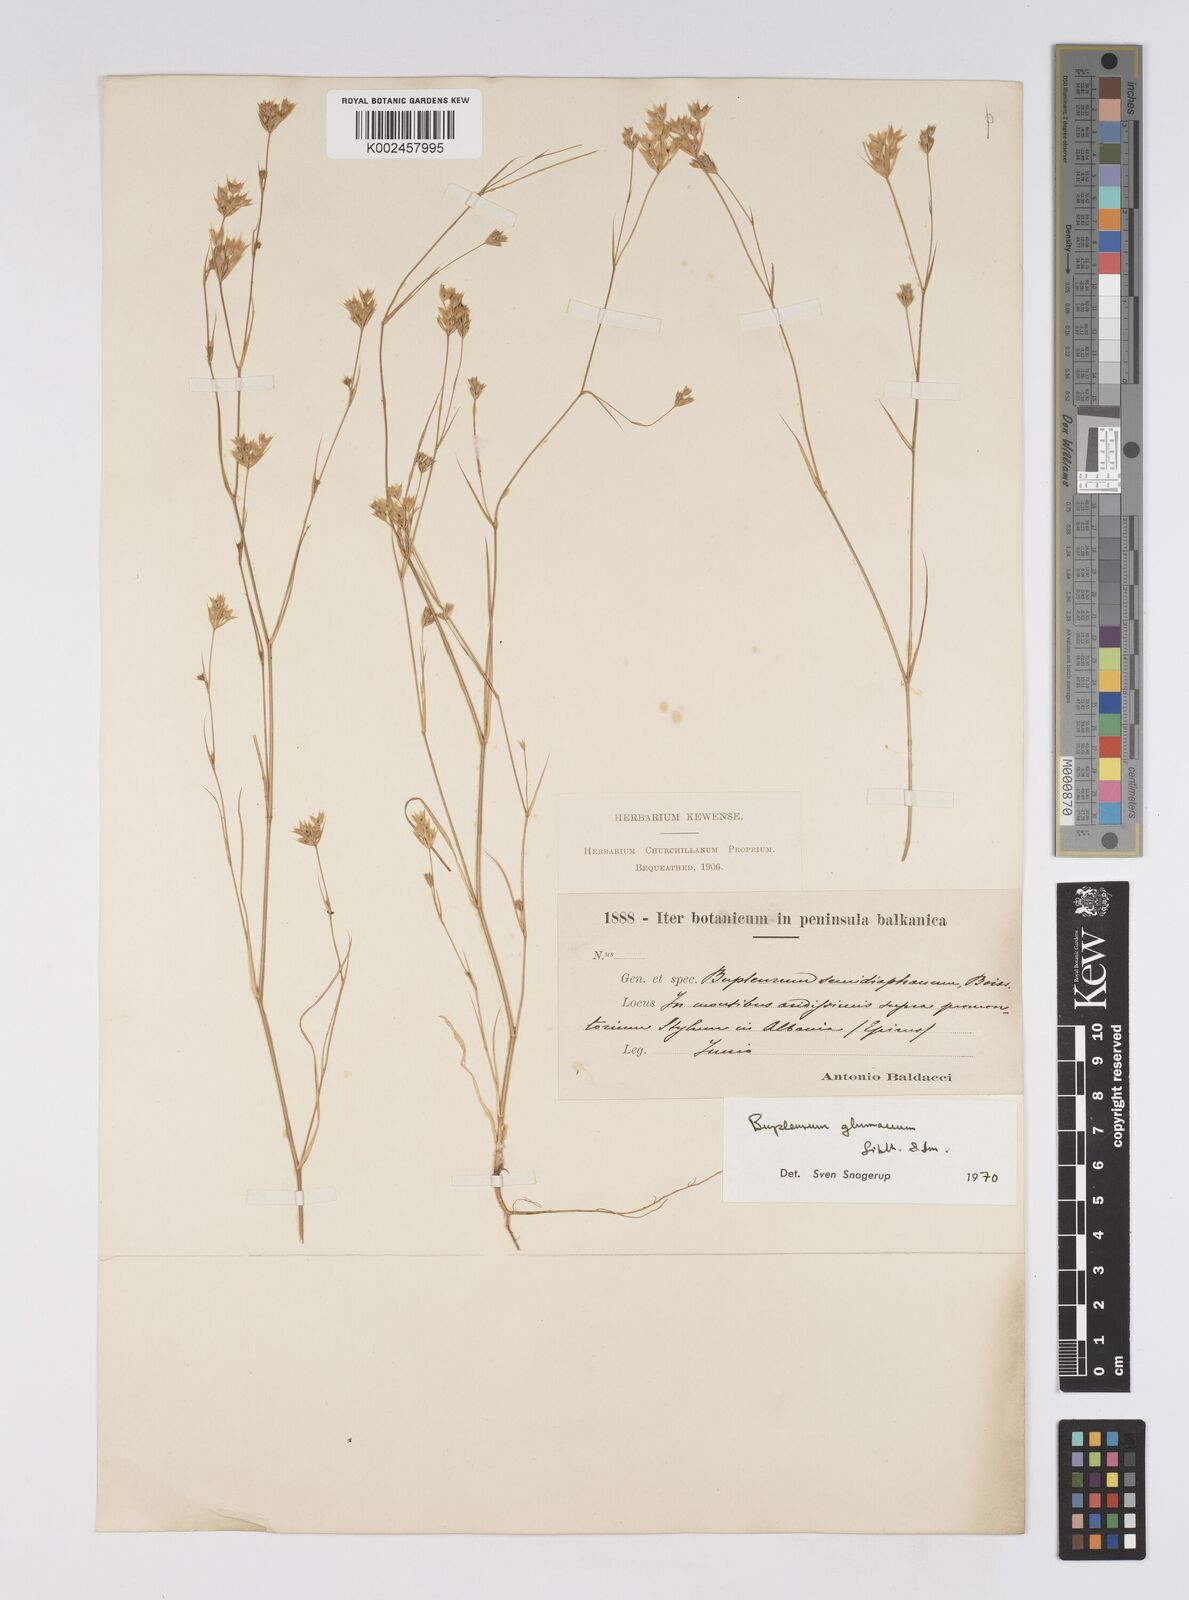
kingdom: Plantae
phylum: Tracheophyta
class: Magnoliopsida
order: Apiales
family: Apiaceae
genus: Bupleurum
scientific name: Bupleurum glumaceum
